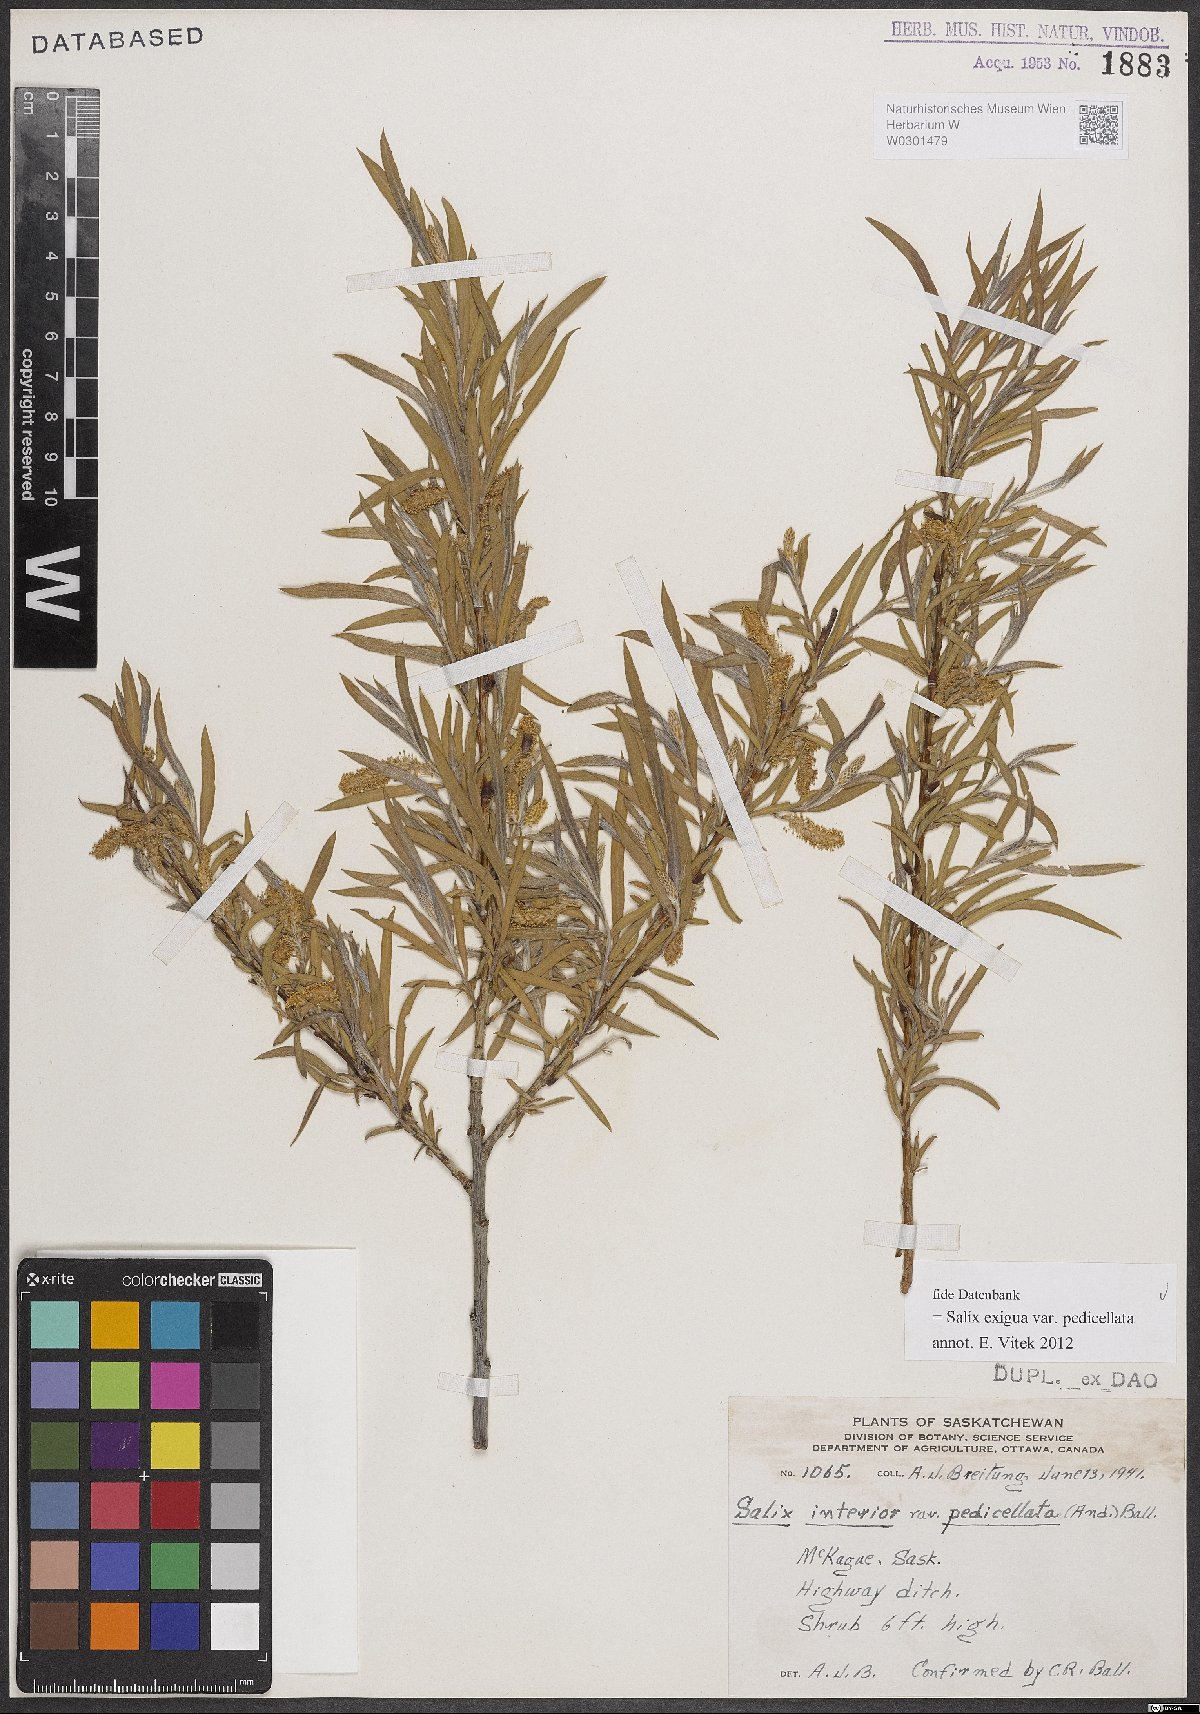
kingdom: Plantae
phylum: Tracheophyta
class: Magnoliopsida
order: Malpighiales
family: Salicaceae
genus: Salix
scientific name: Salix interior
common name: Sandbar willow
